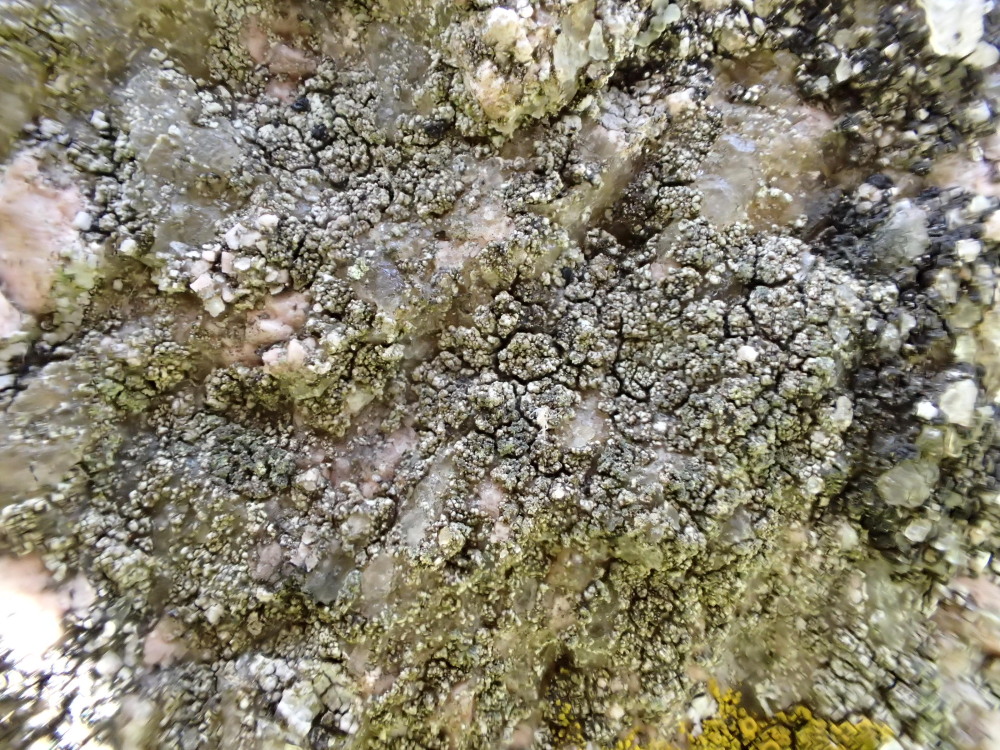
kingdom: Fungi
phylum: Ascomycota
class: Lecanoromycetes
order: Lecanorales
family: Lecanoraceae
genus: Lecidella
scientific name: Lecidella scabra
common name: skurvet skivelav
